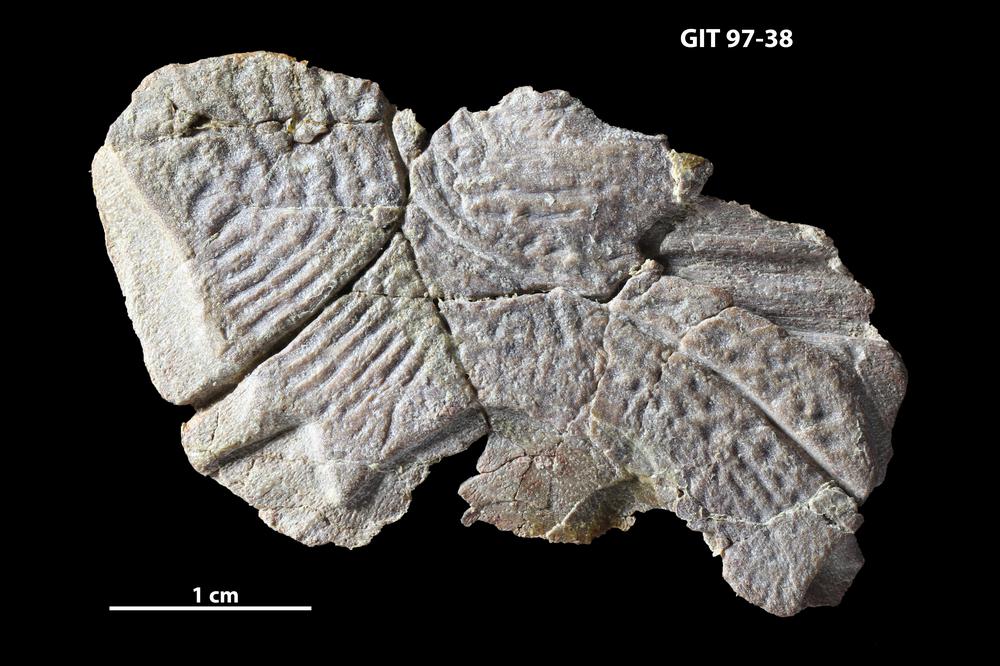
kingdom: Animalia
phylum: Chordata
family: Holonematidae
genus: Holonema
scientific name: Holonema
